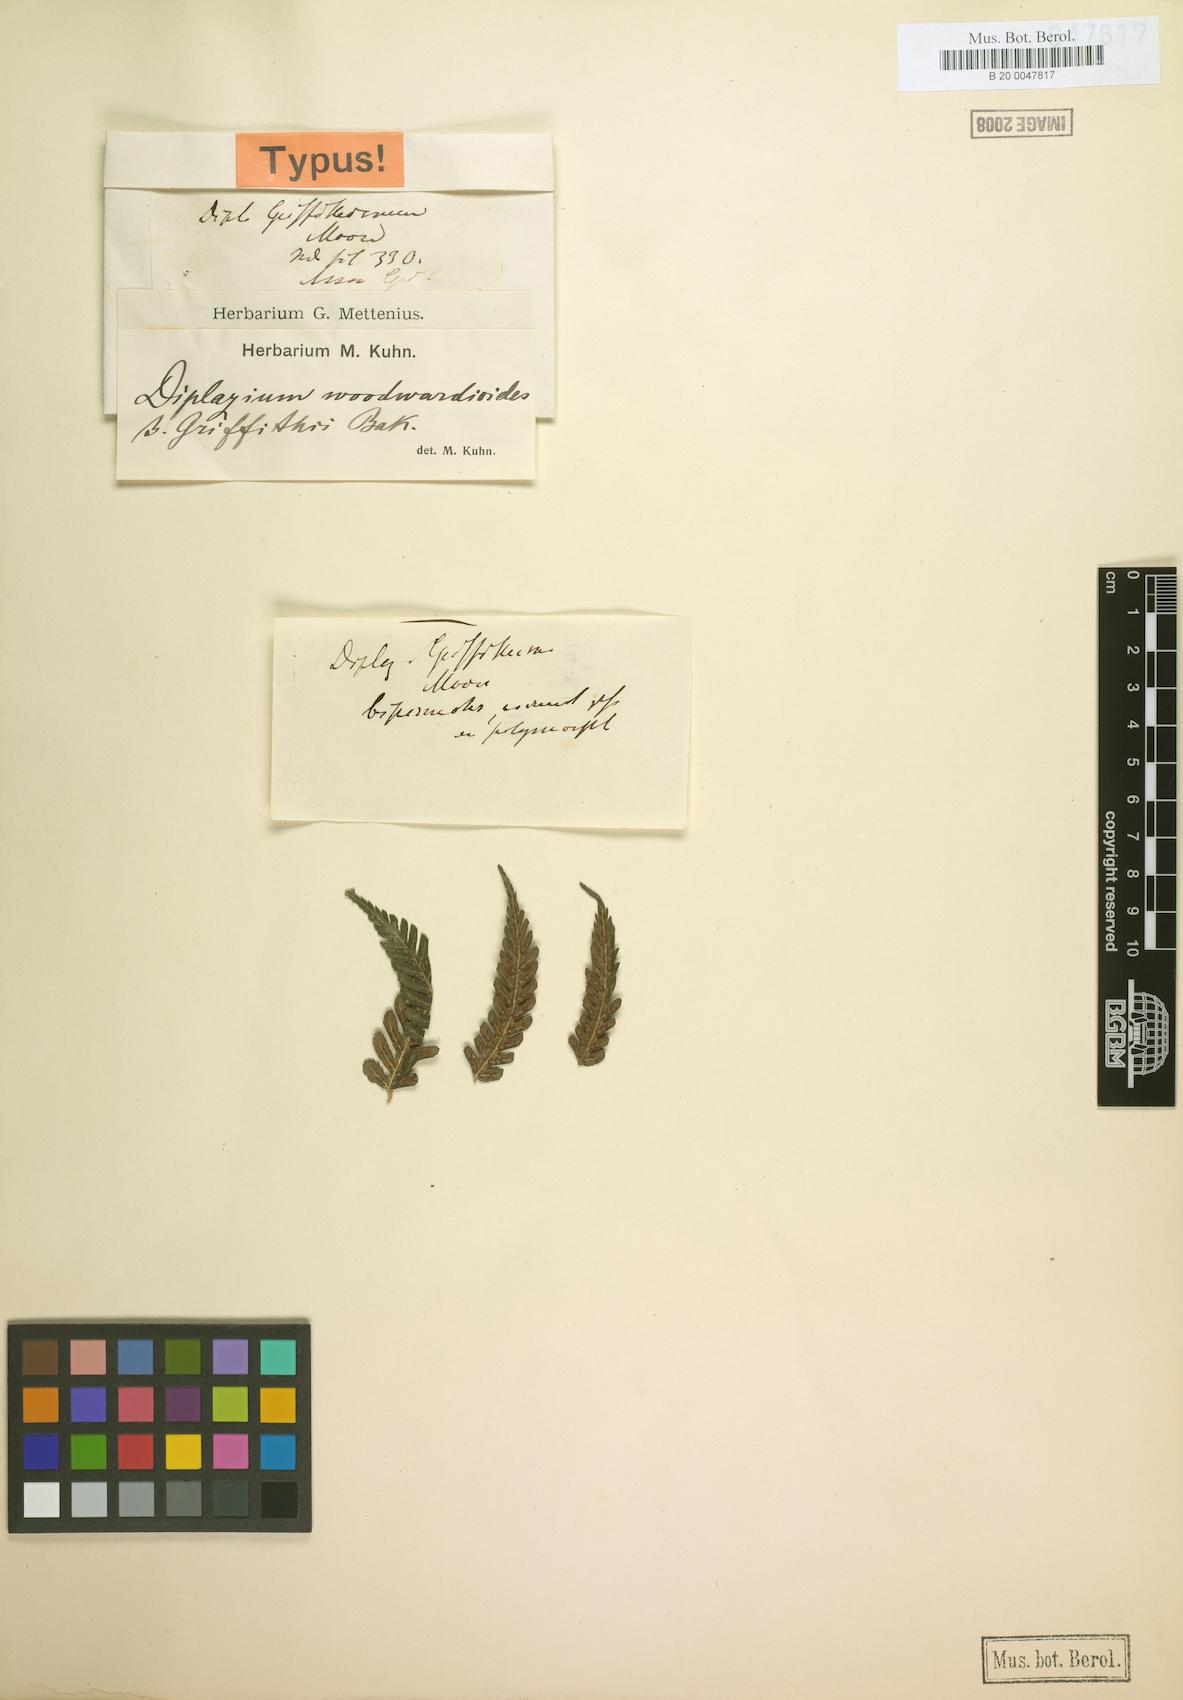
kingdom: Plantae
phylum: Tracheophyta
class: Polypodiopsida
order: Polypodiales
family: Athyriaceae
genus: Diplazium
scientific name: Diplazium griffithii
